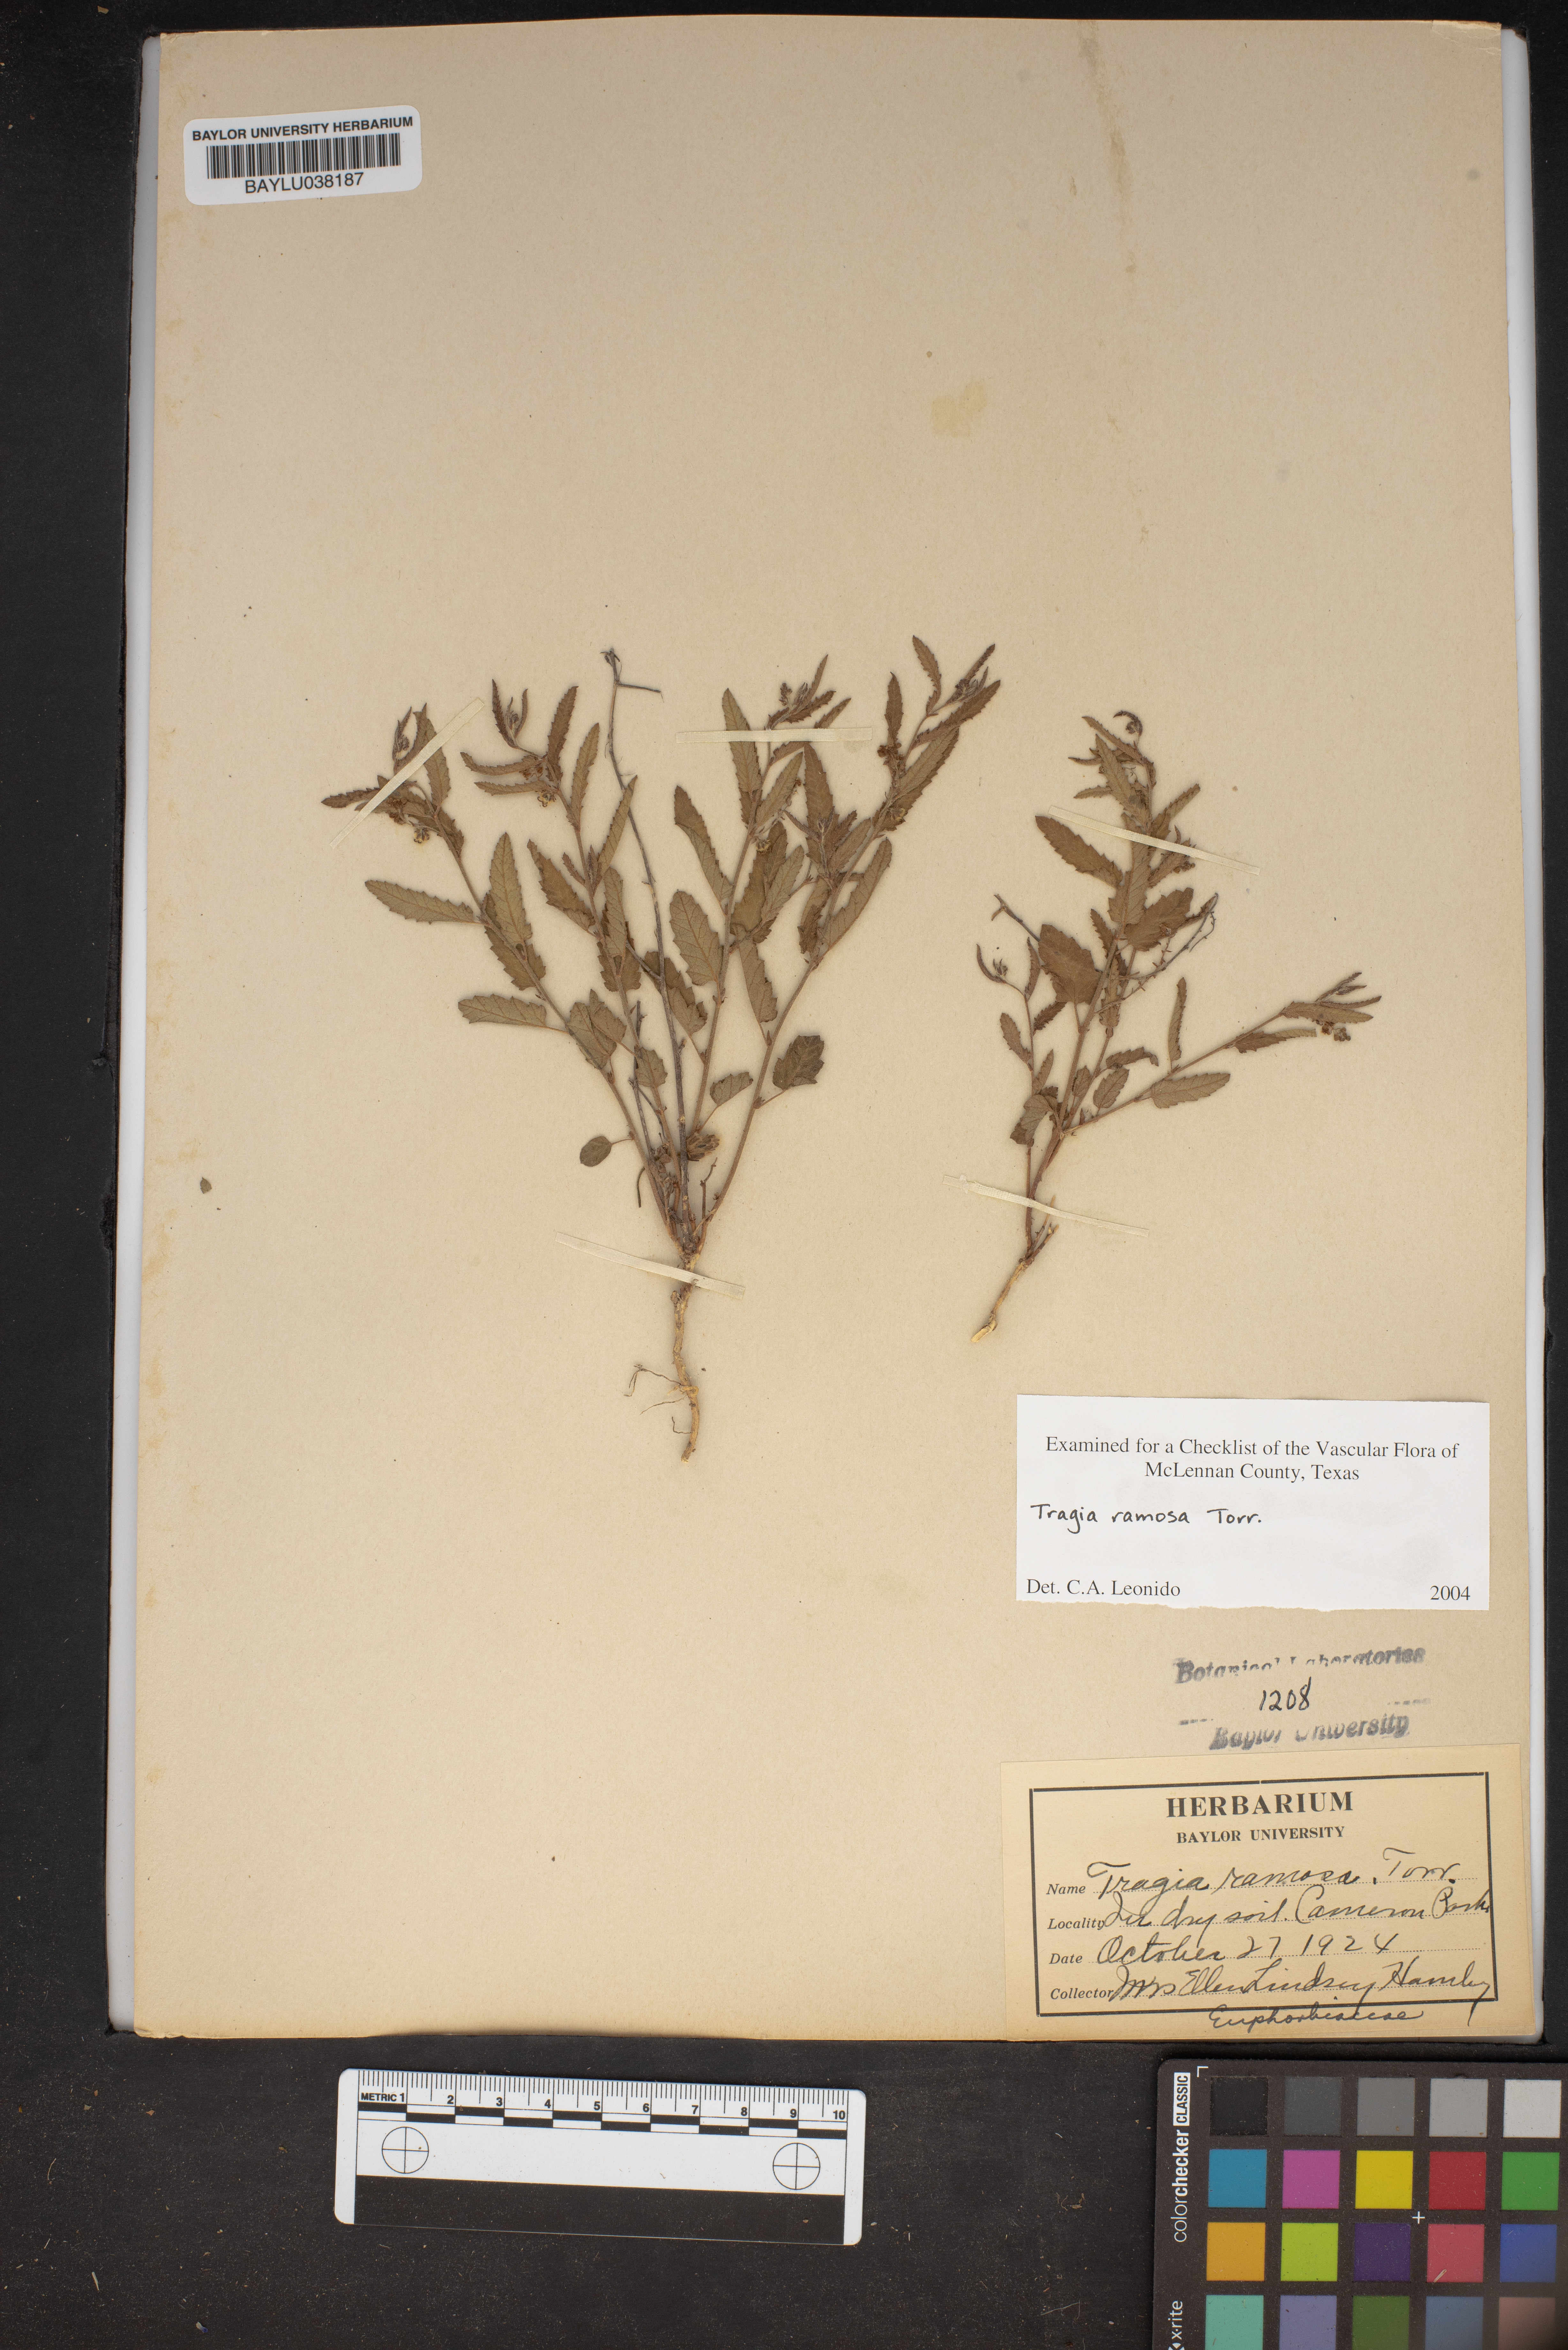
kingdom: Plantae
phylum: Tracheophyta
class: Magnoliopsida
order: Malpighiales
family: Euphorbiaceae
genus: Tragia
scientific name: Tragia ramosa
